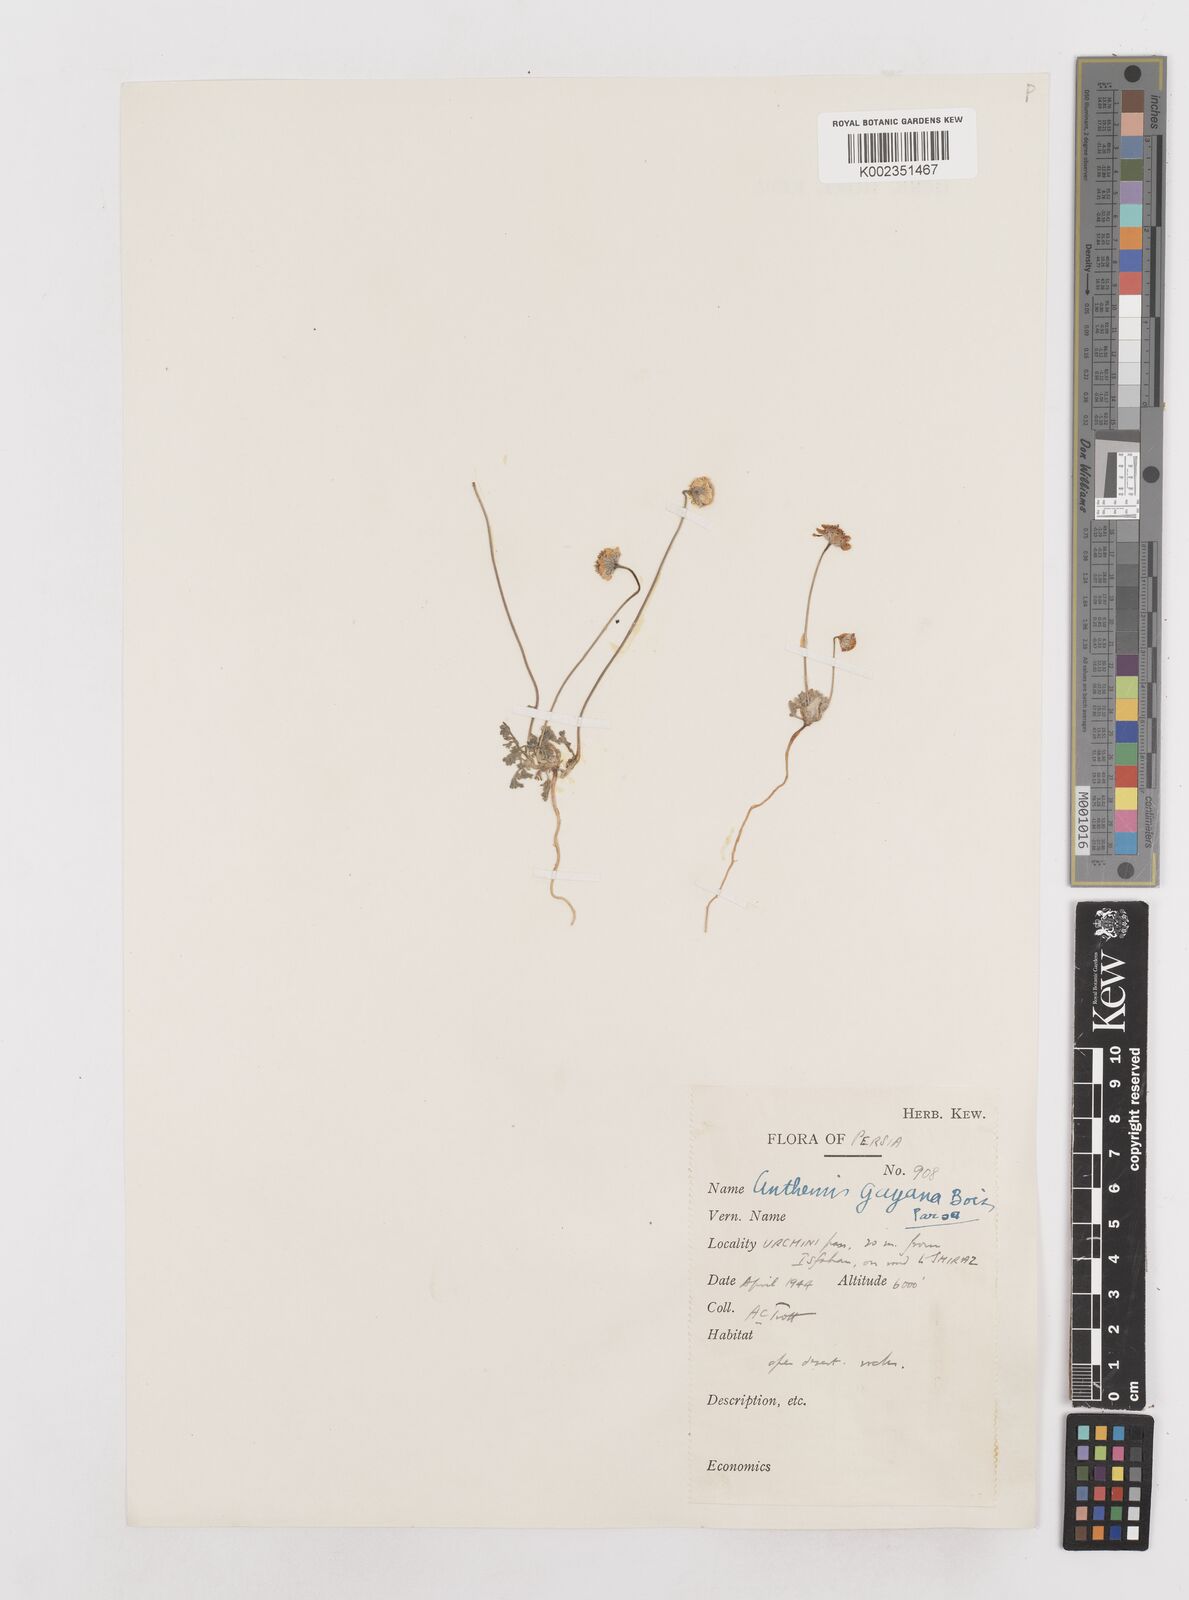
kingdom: Plantae
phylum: Tracheophyta
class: Magnoliopsida
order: Asterales
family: Asteraceae
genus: Anthemis
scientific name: Anthemis gayana
